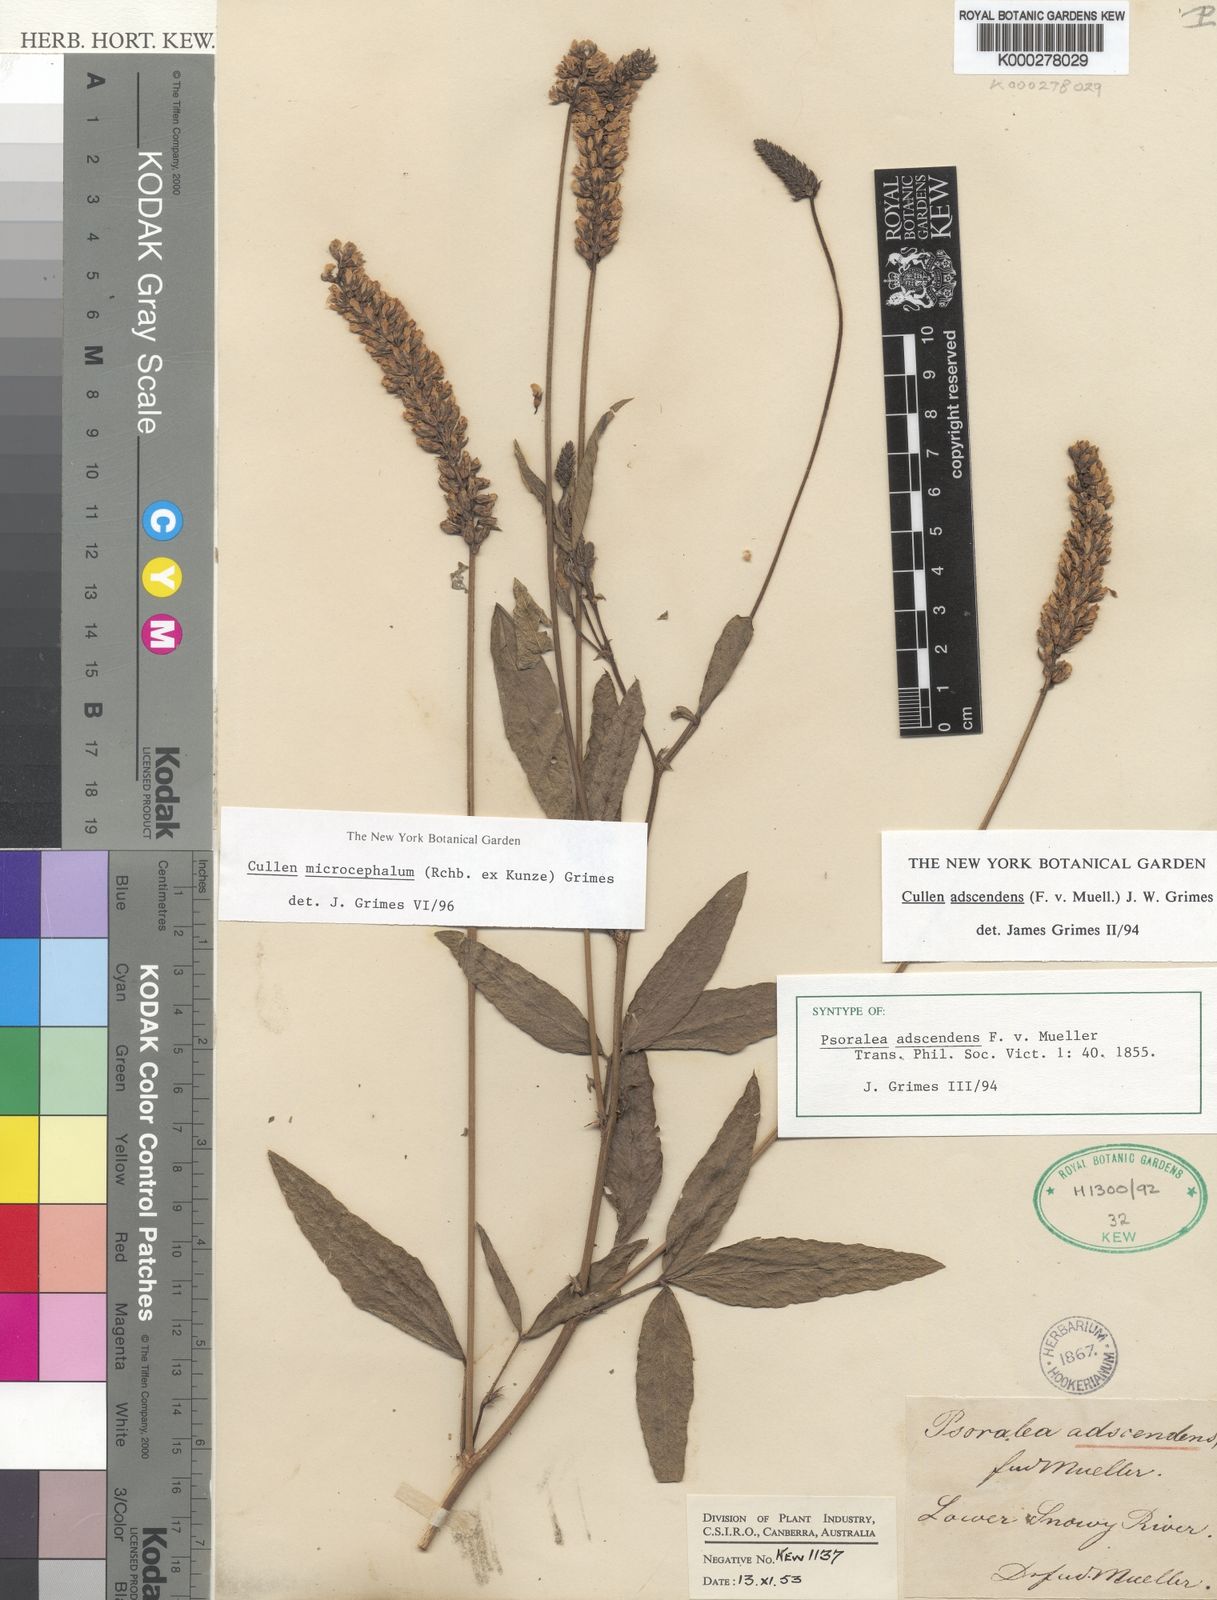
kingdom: Plantae
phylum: Tracheophyta
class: Magnoliopsida
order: Fabales
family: Fabaceae
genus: Cullen
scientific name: Cullen microcephalum
